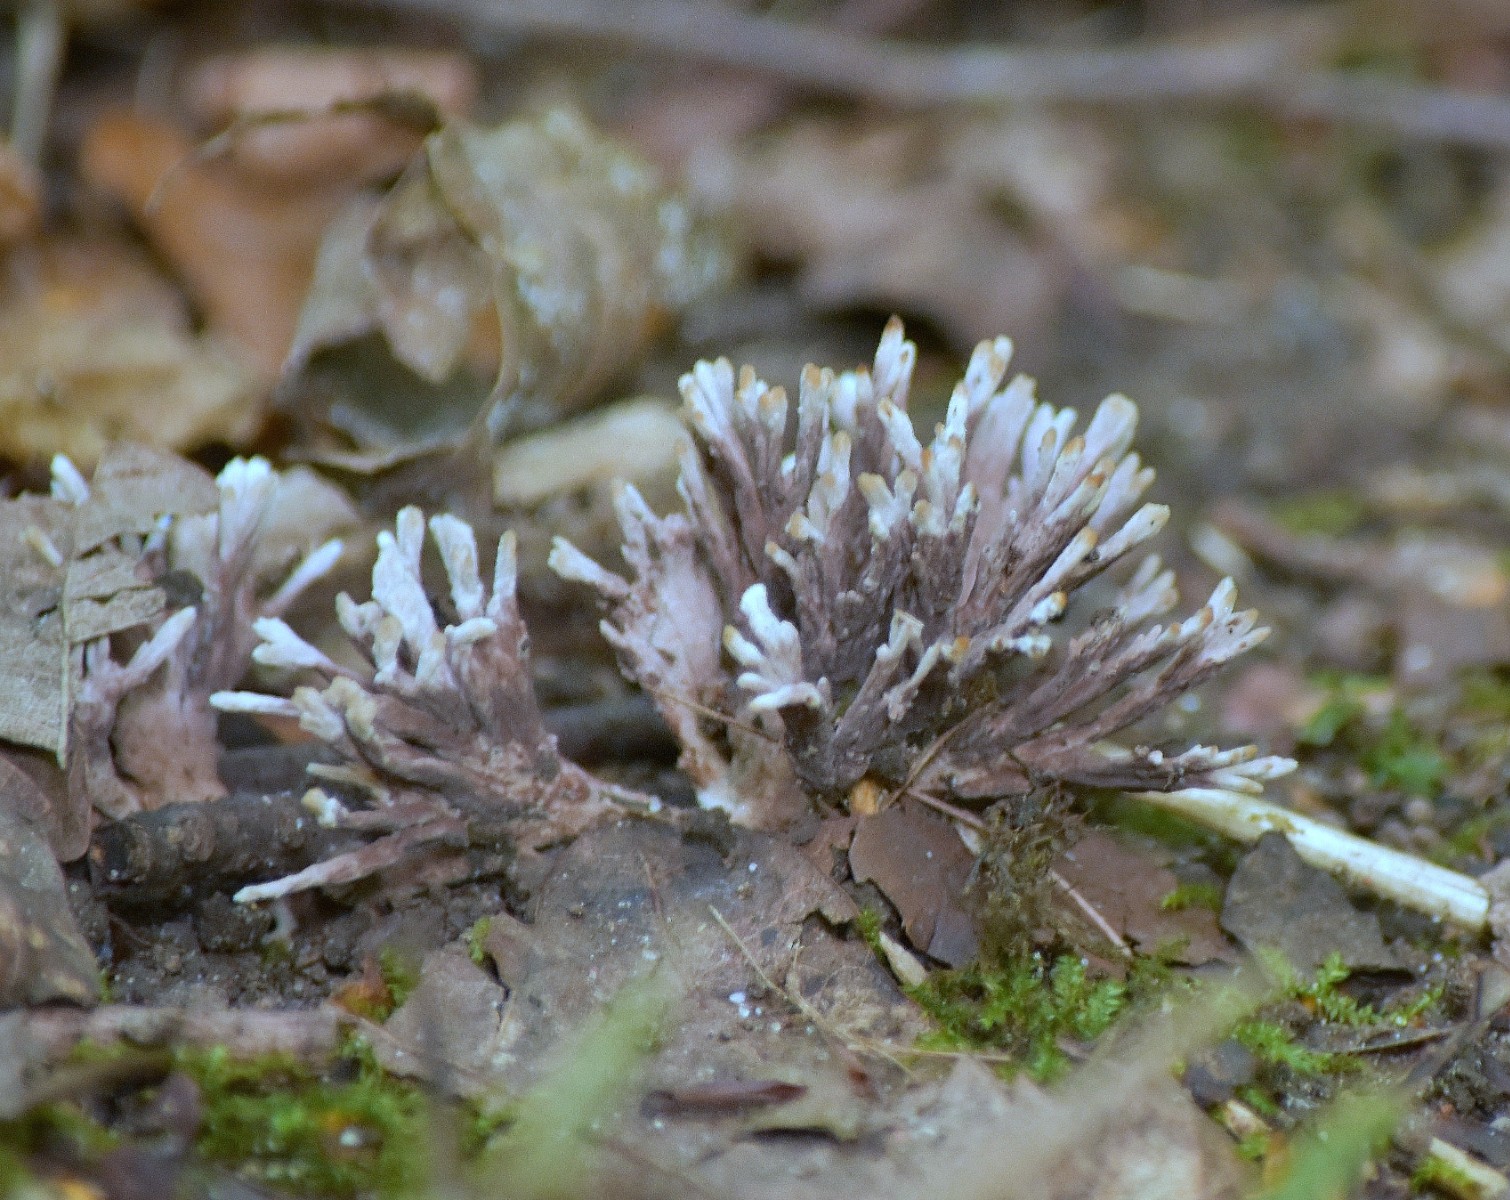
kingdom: Fungi
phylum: Basidiomycota
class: Agaricomycetes
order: Thelephorales
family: Thelephoraceae
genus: Thelephora
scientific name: Thelephora anthocephala
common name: busk-frynsesvamp
